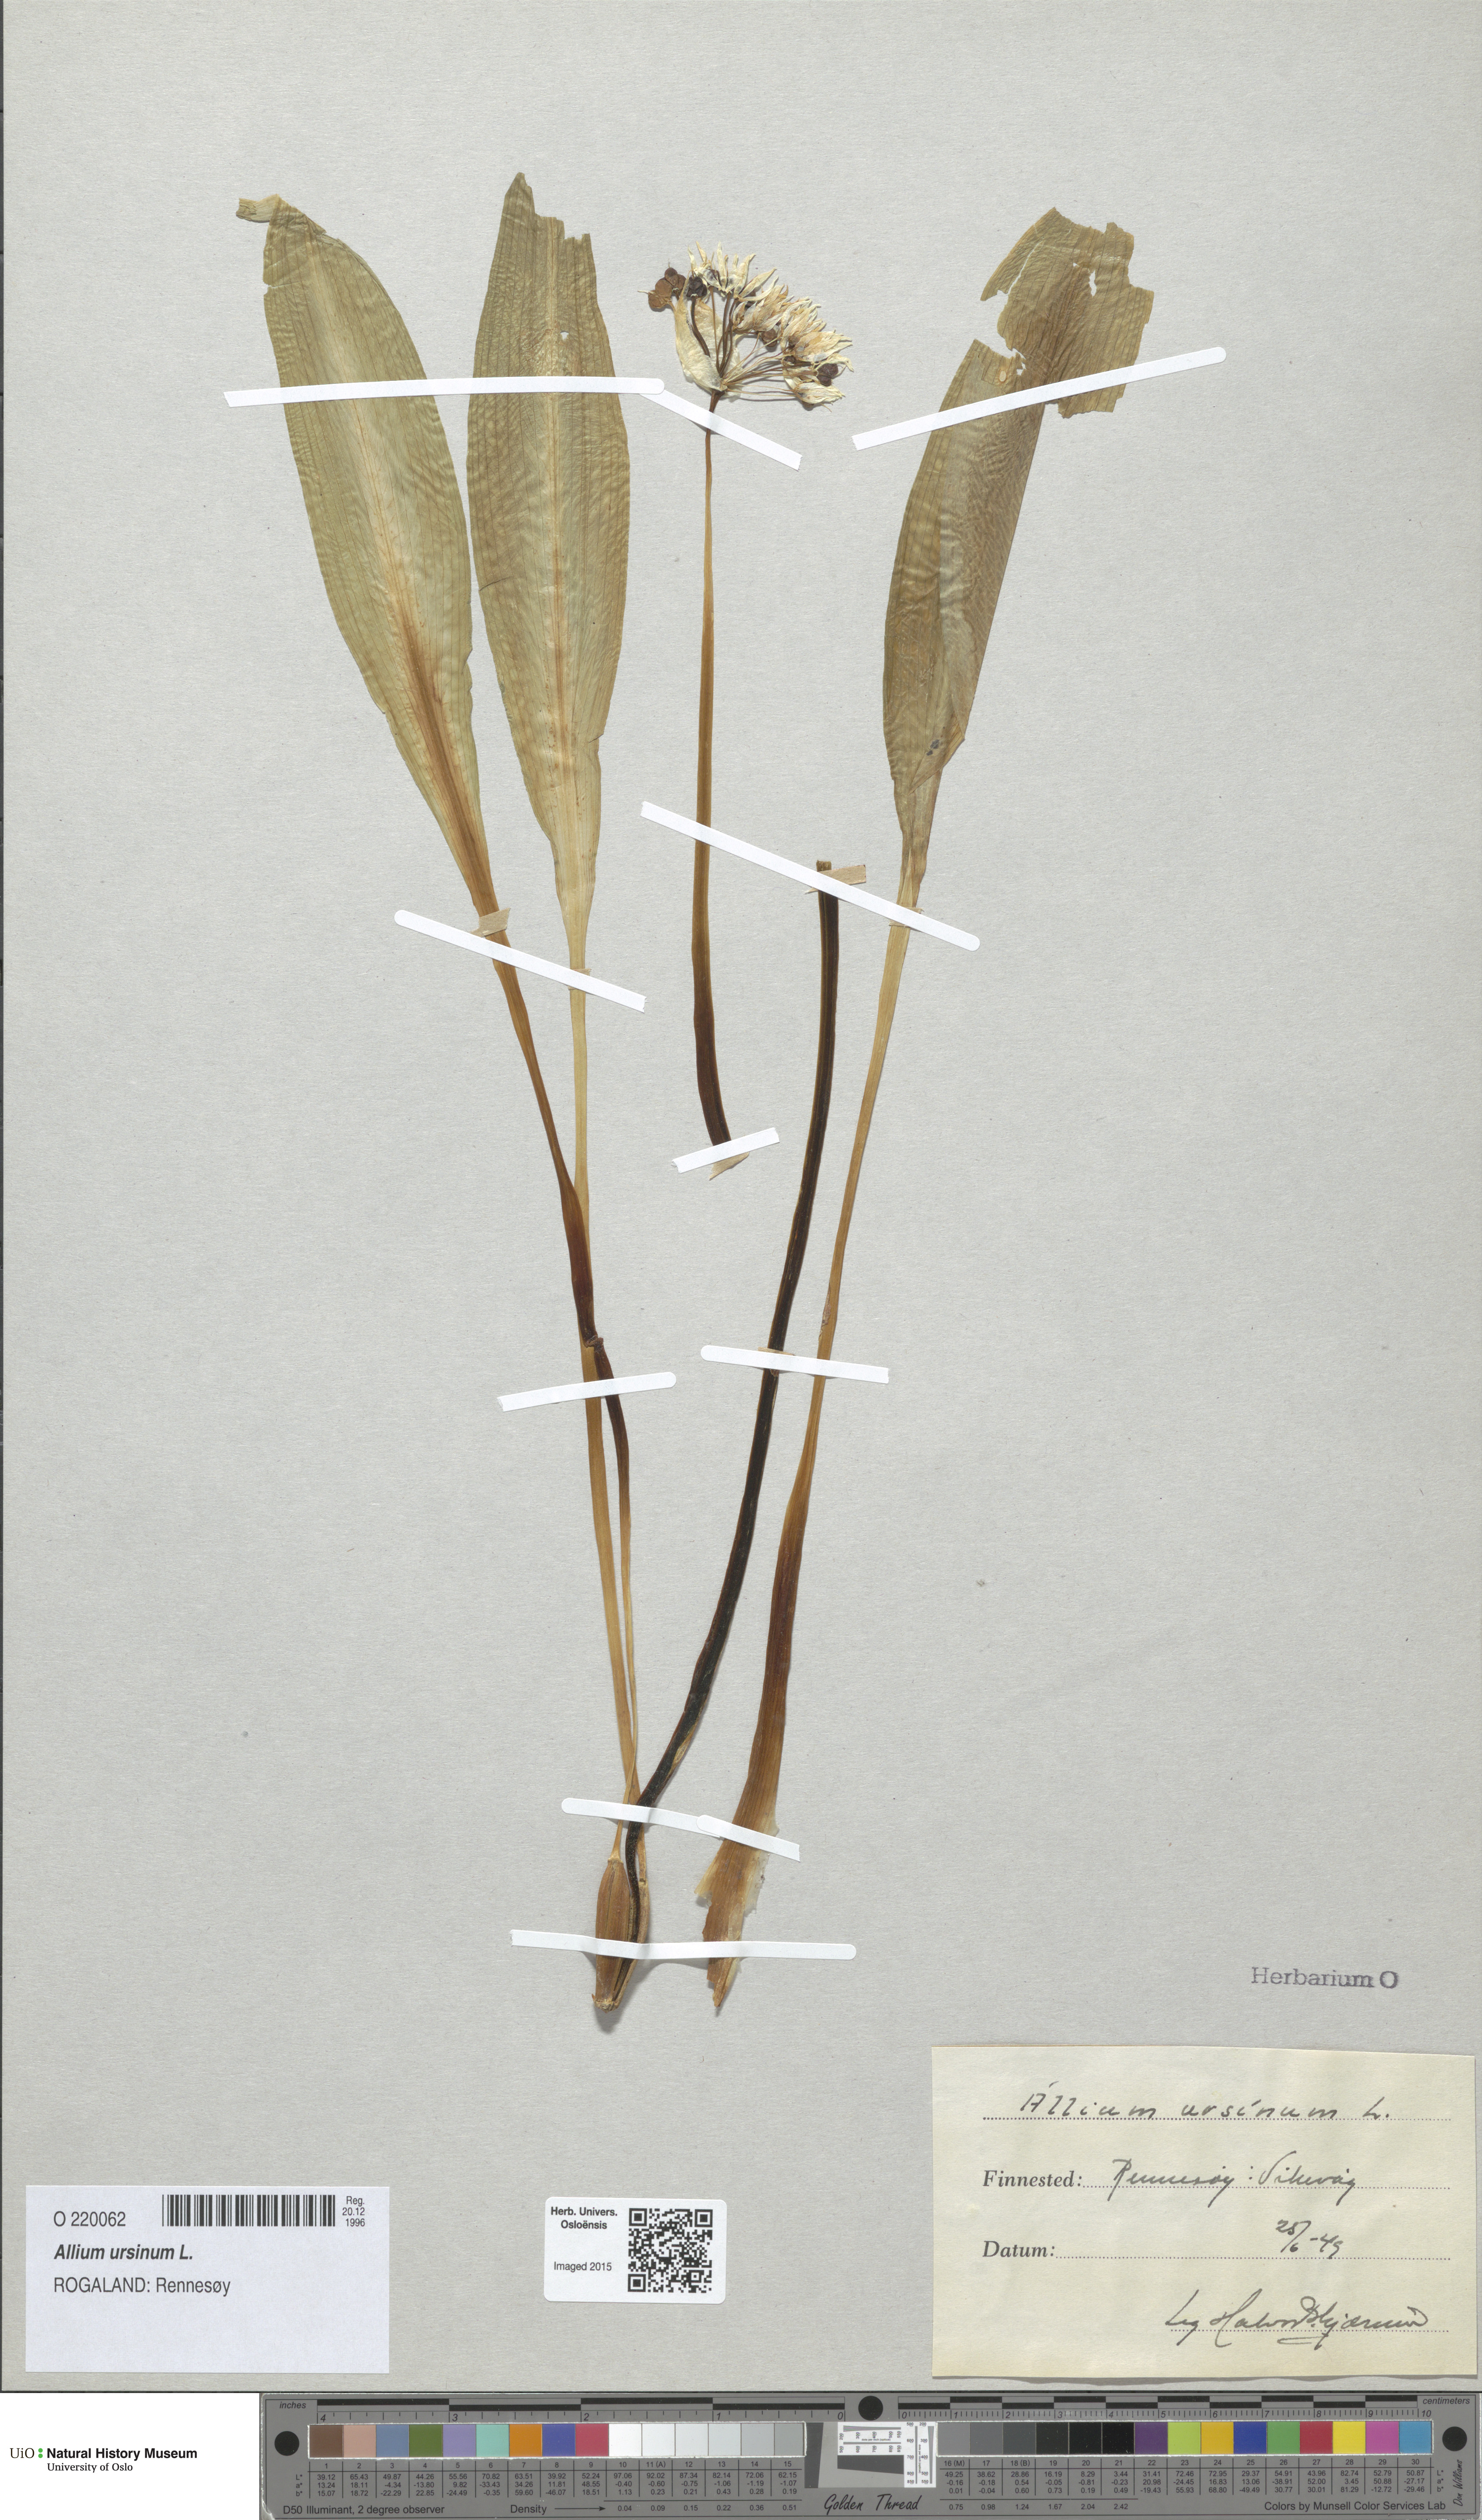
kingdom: Plantae
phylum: Tracheophyta
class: Liliopsida
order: Asparagales
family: Amaryllidaceae
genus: Allium
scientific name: Allium ursinum
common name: Ramsons
